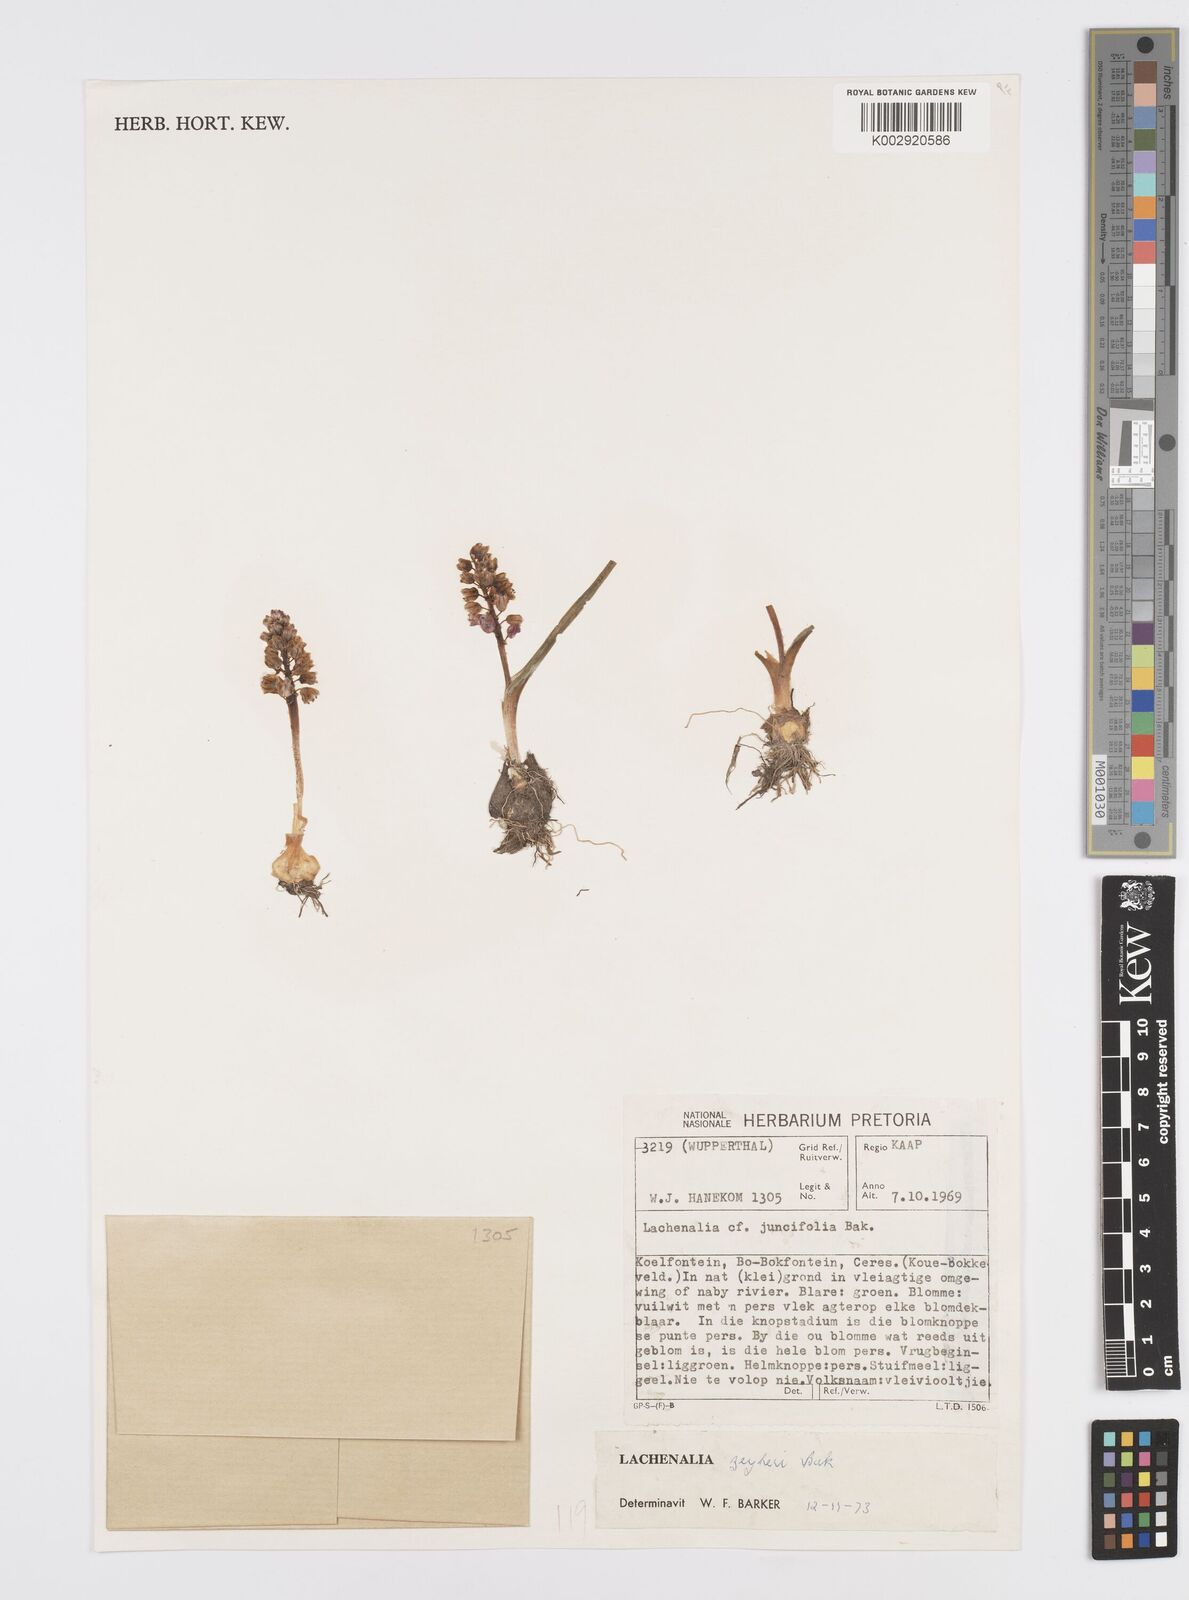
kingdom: Plantae
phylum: Tracheophyta
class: Liliopsida
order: Asparagales
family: Asparagaceae
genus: Lachenalia
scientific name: Lachenalia zeyheri
